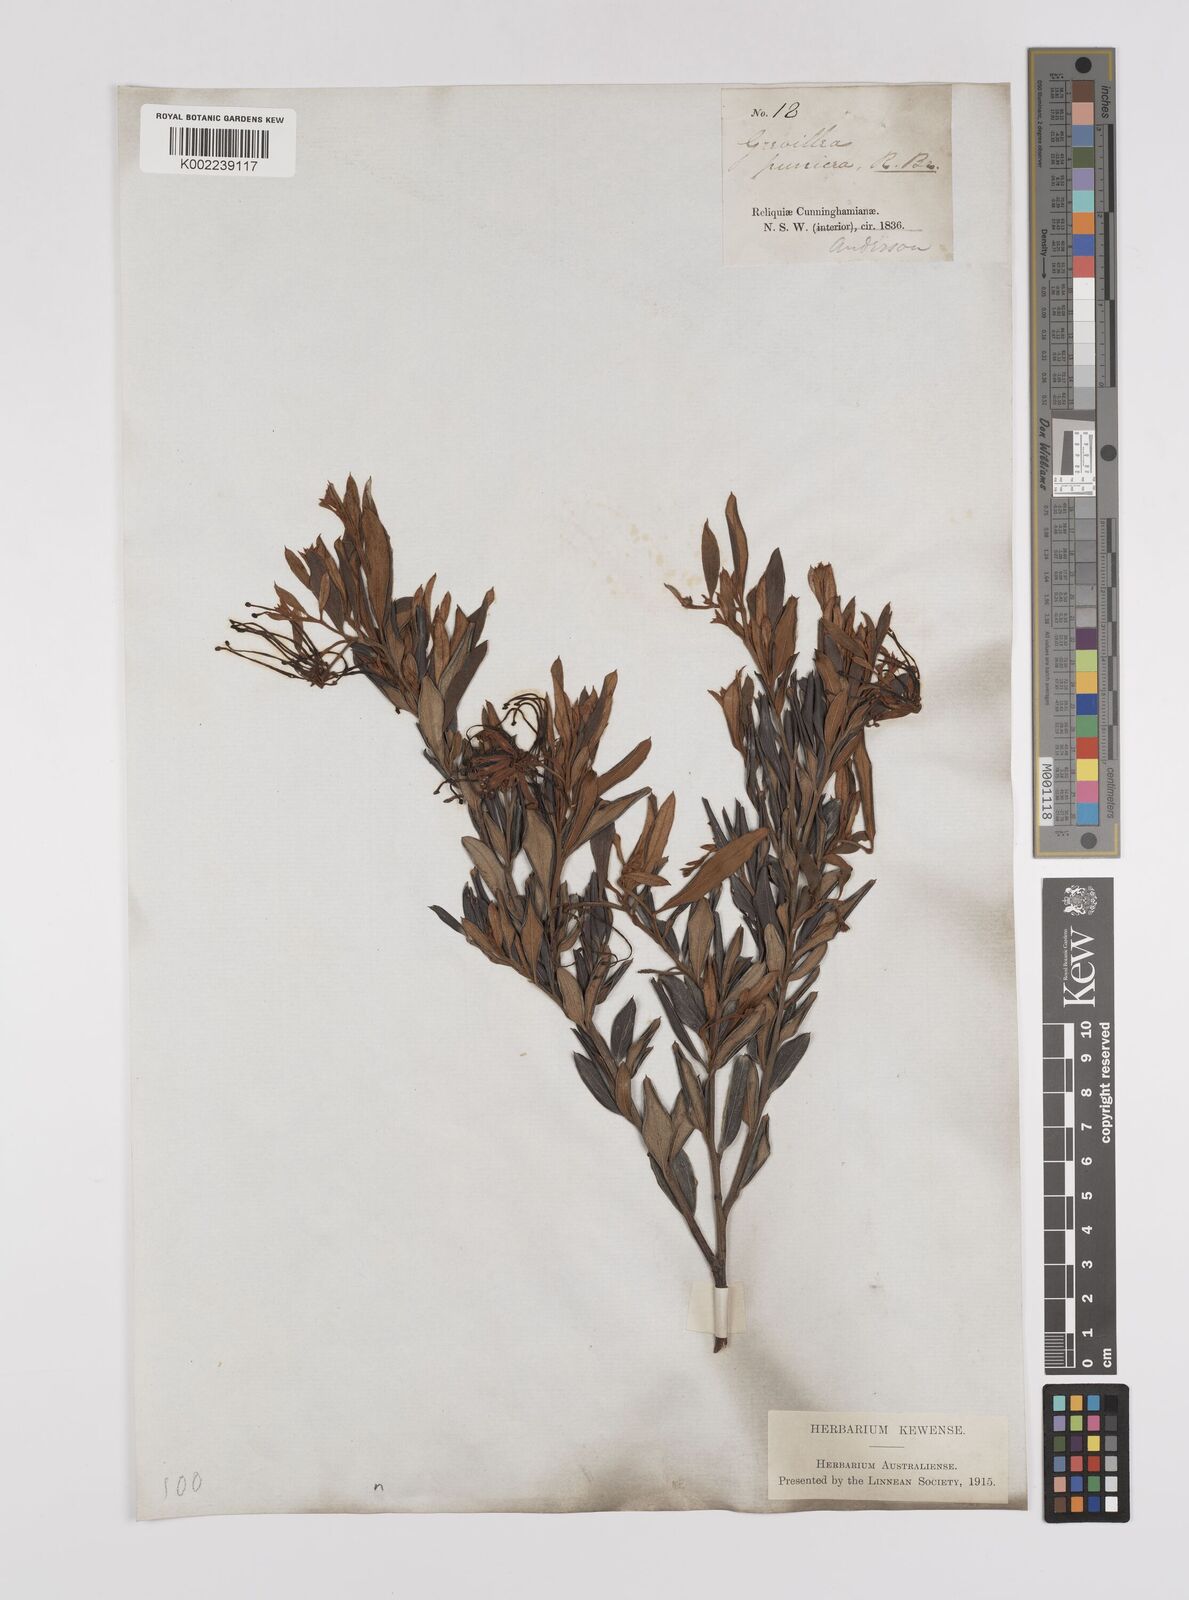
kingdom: Plantae
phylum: Tracheophyta
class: Magnoliopsida
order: Proteales
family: Proteaceae
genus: Grevillea
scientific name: Grevillea speciosa
